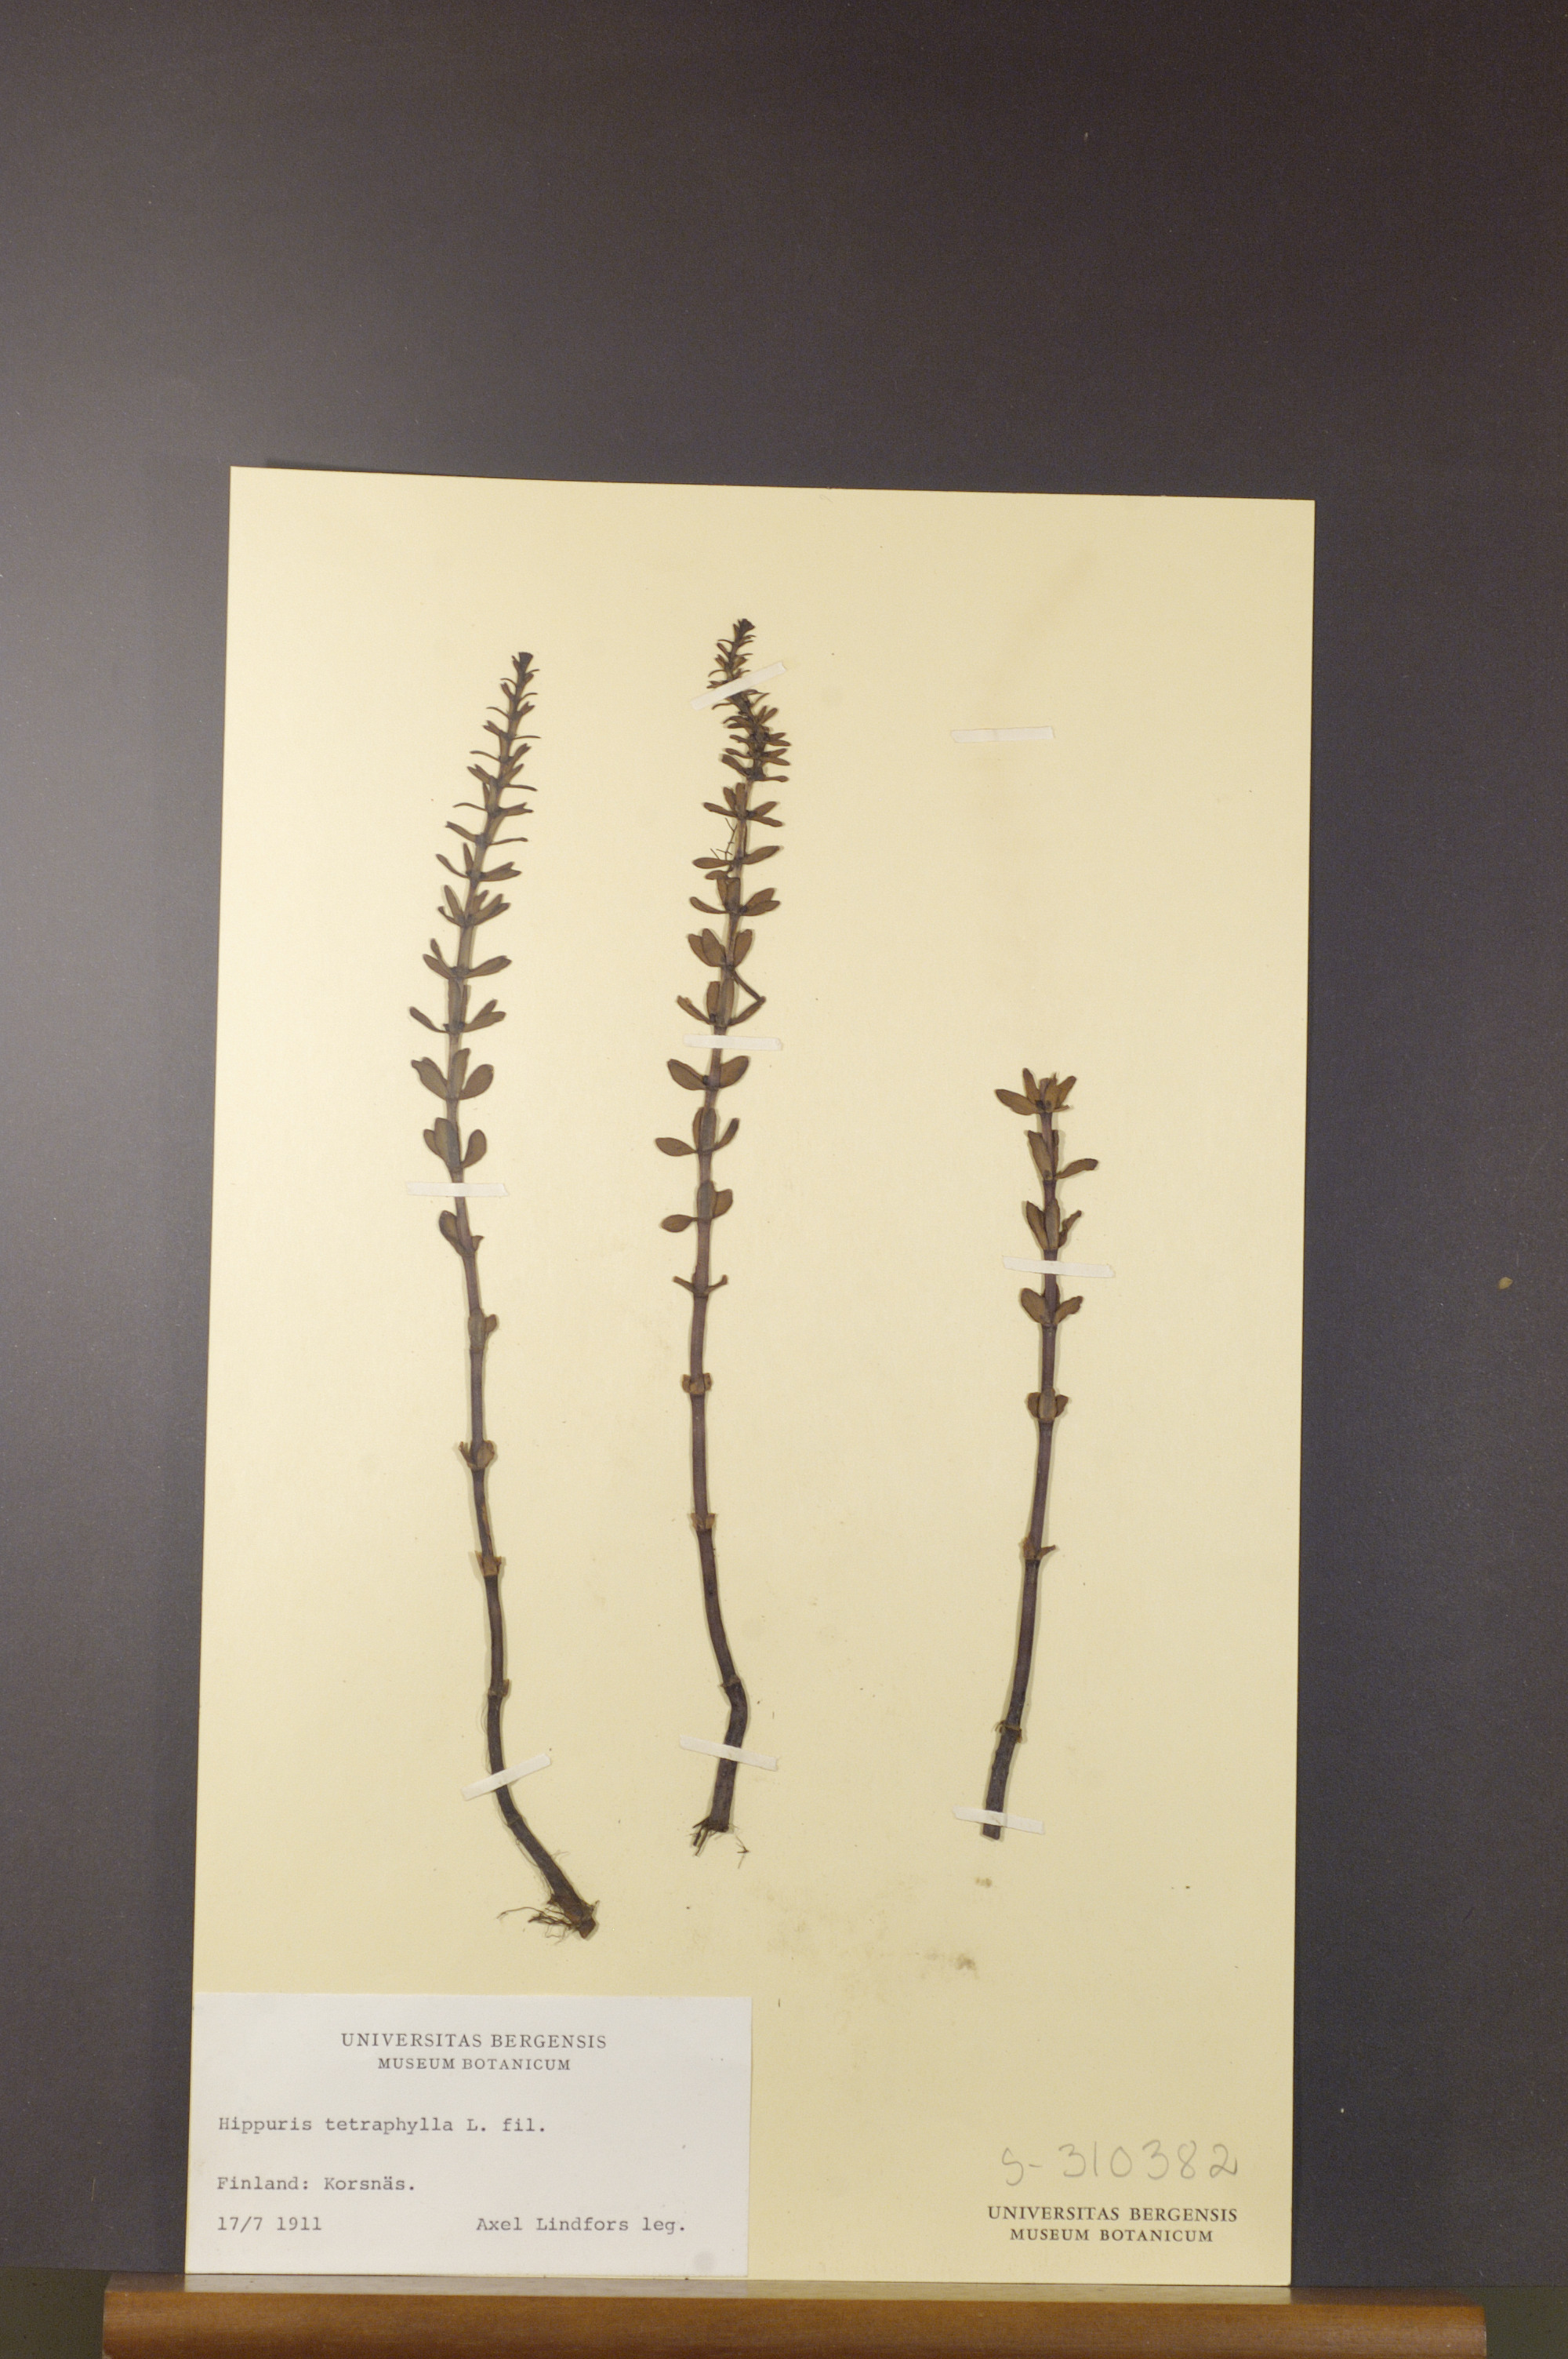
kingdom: Plantae
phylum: Tracheophyta
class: Magnoliopsida
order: Lamiales
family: Plantaginaceae
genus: Hippuris
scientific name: Hippuris tetraphylla
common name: Four-leaved mare's-tail
